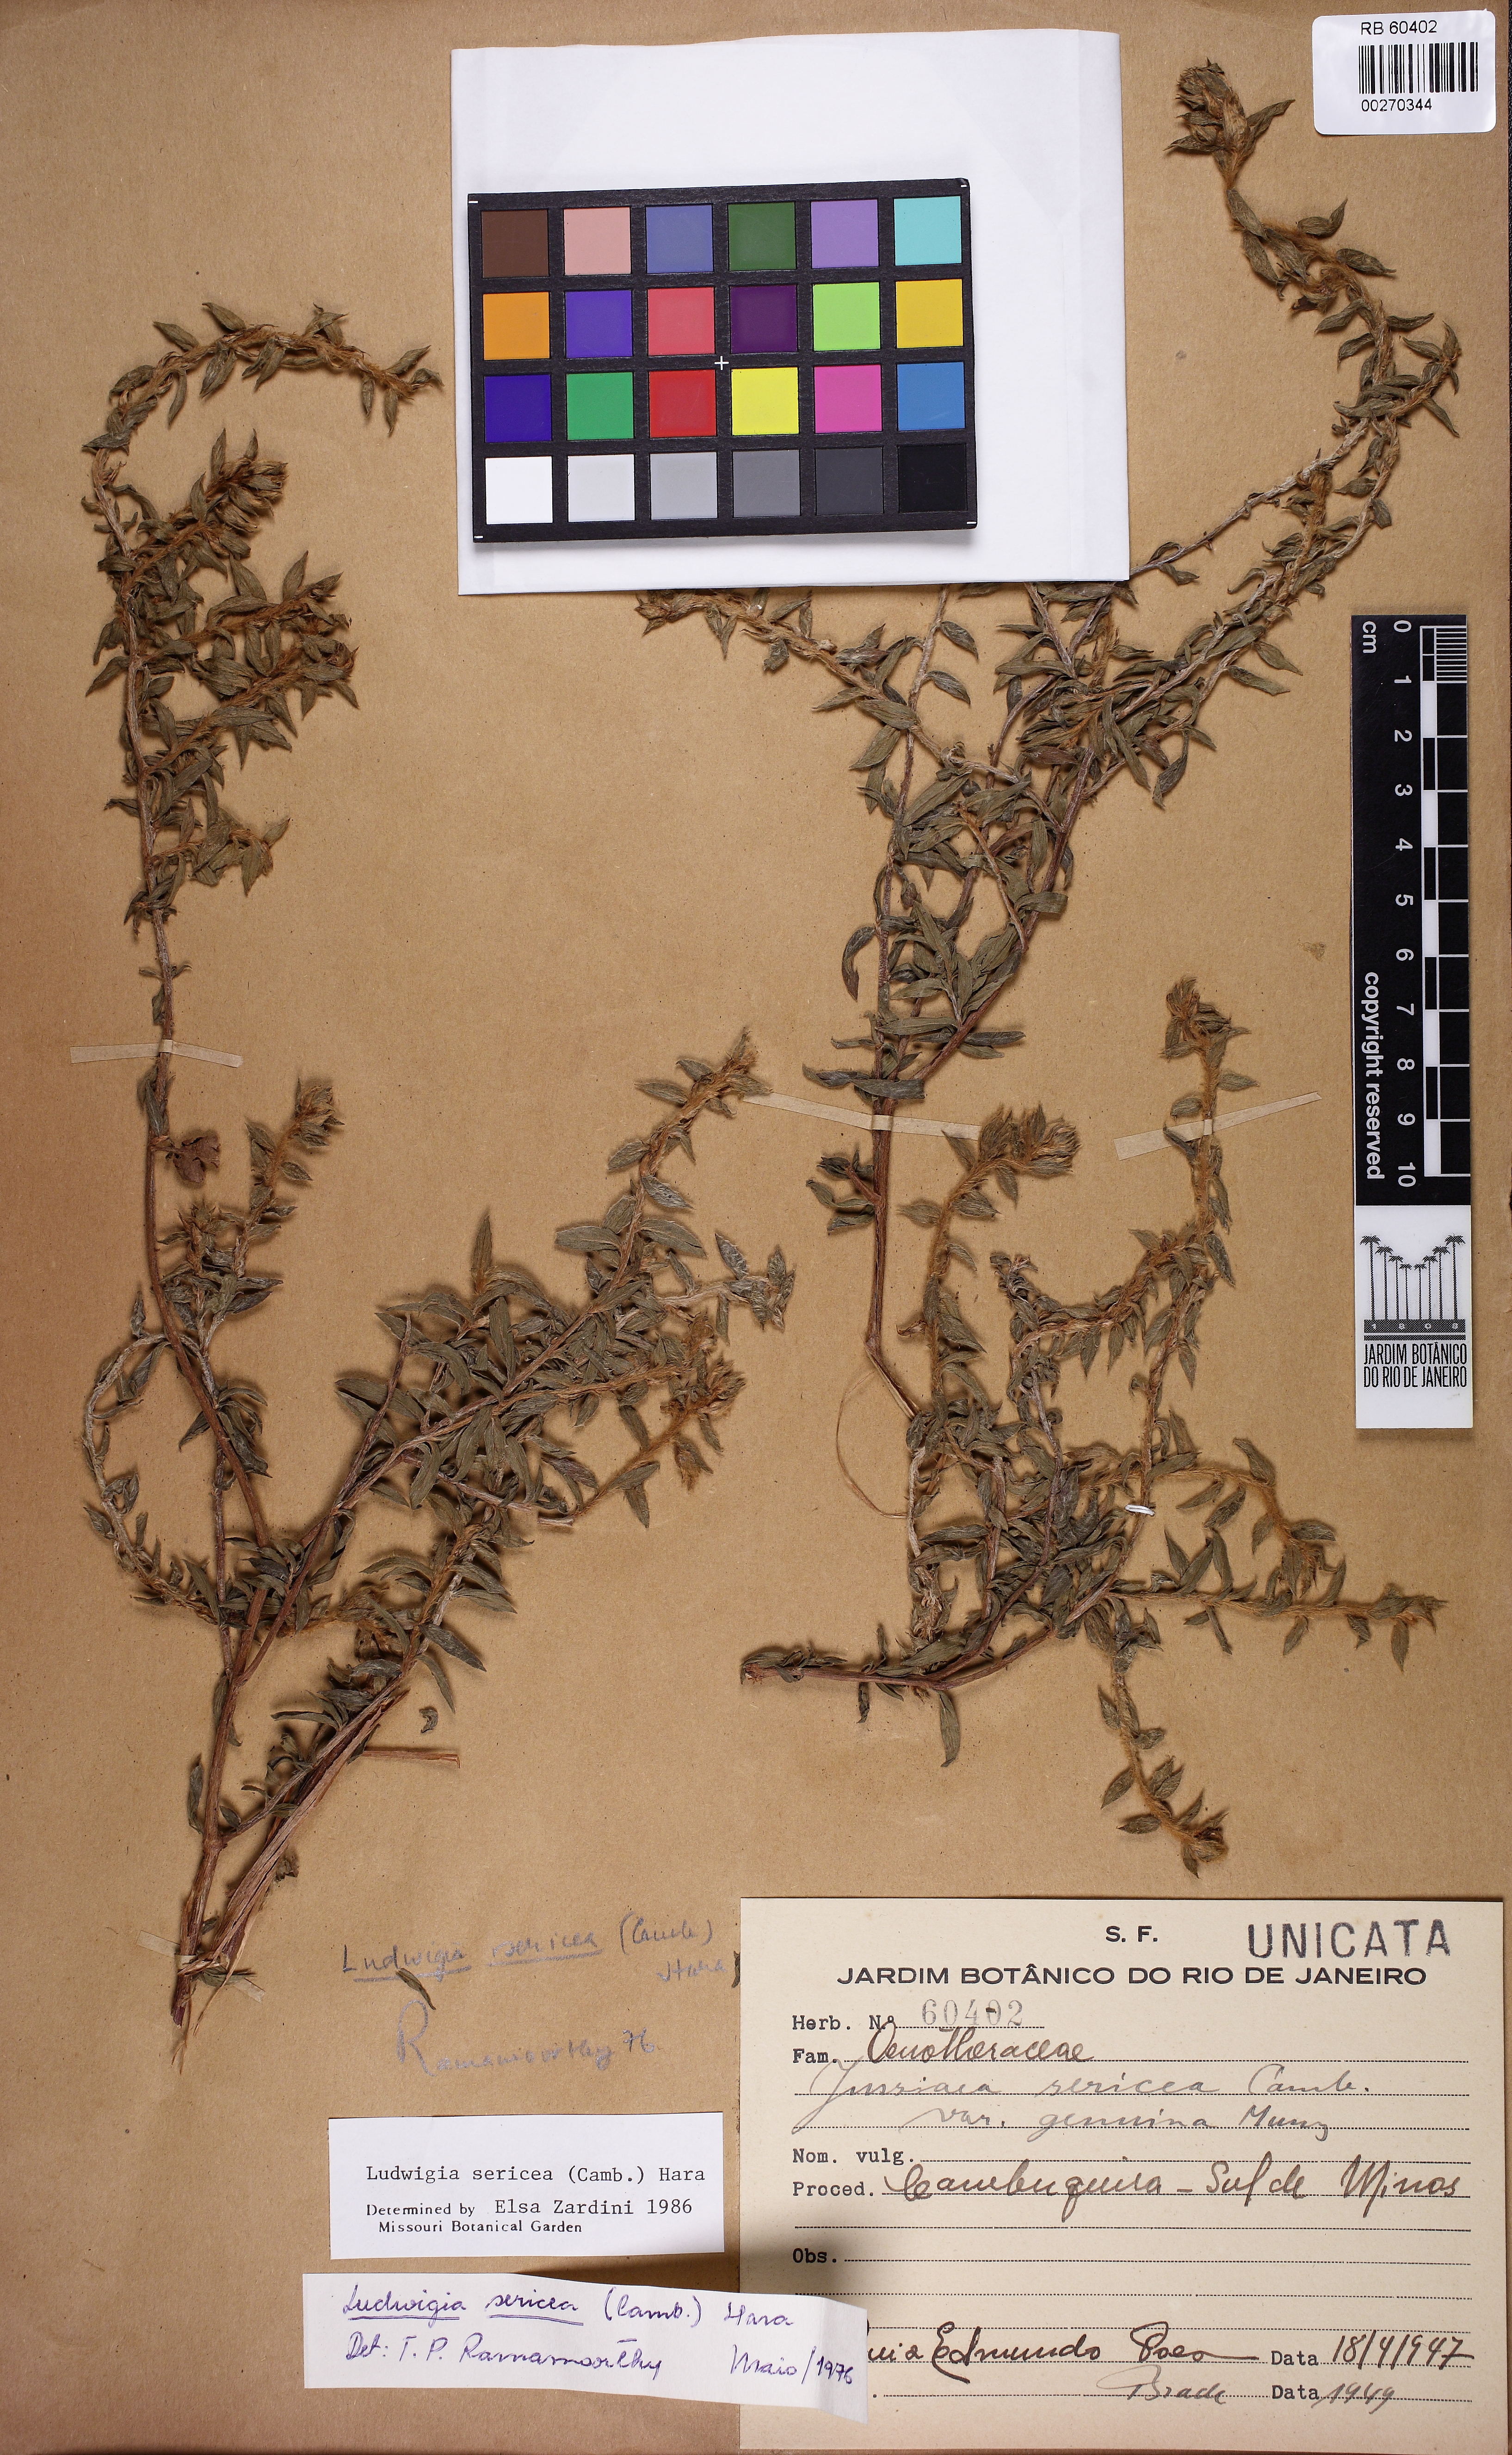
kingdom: Plantae
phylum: Tracheophyta
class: Magnoliopsida
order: Myrtales
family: Onagraceae
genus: Ludwigia
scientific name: Ludwigia sericea
